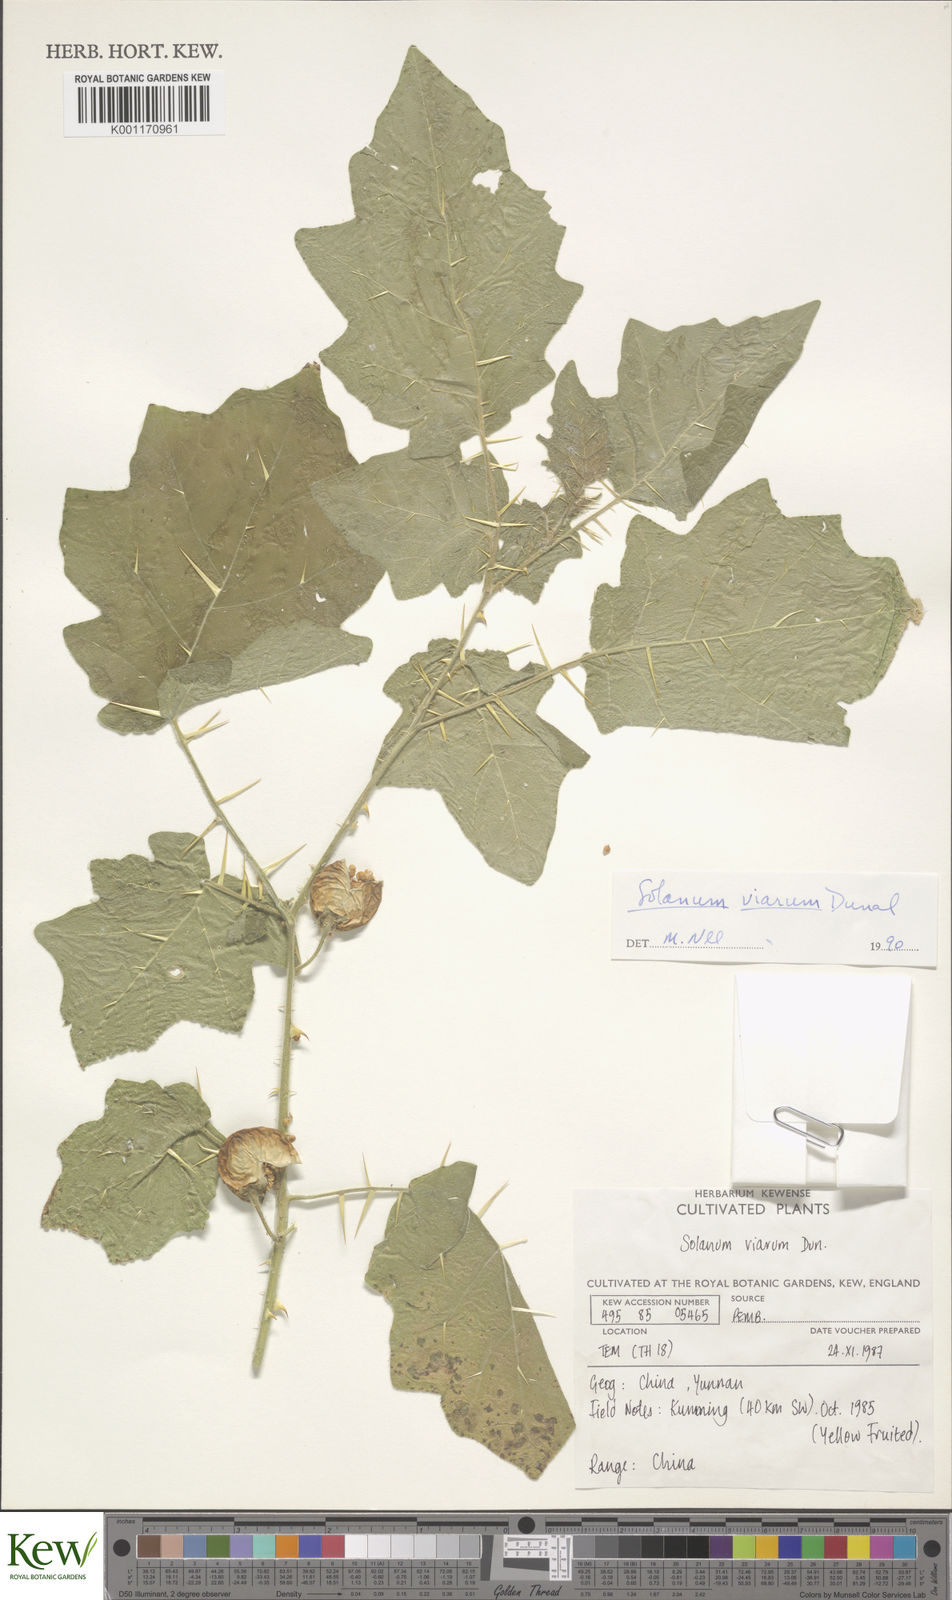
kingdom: Plantae
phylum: Tracheophyta
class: Magnoliopsida
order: Solanales
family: Solanaceae
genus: Solanum
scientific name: Solanum viarum
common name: Tropical soda apple
